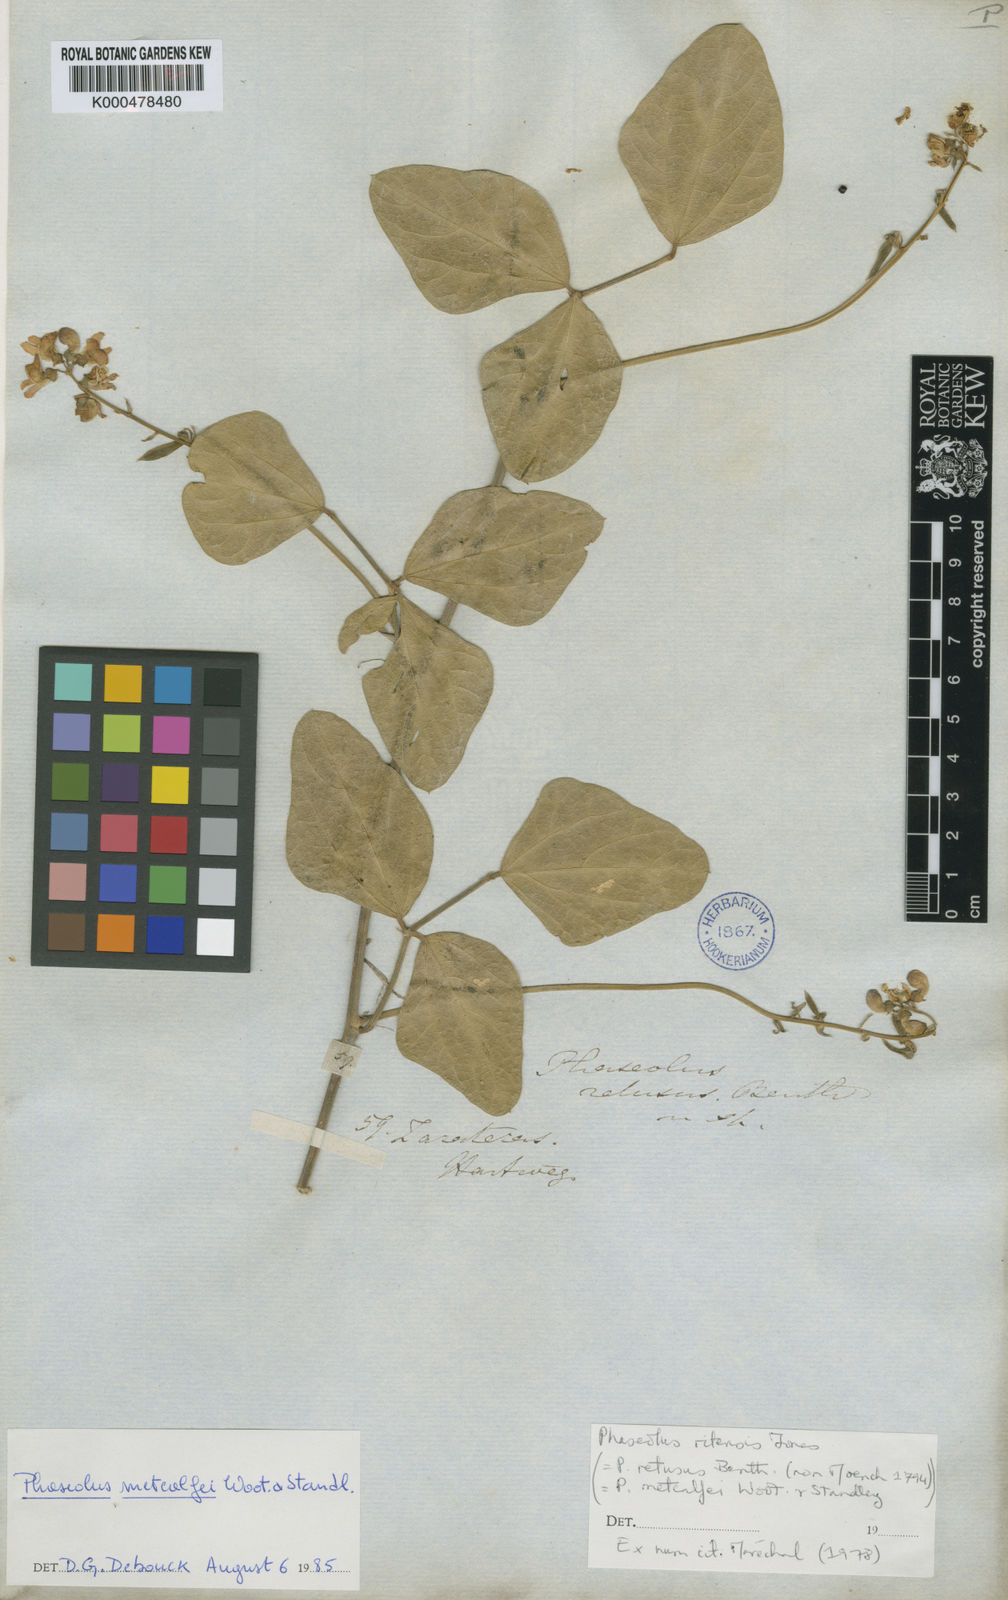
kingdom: Plantae
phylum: Tracheophyta
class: Magnoliopsida
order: Fabales
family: Fabaceae
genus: Phaseolus
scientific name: Phaseolus maculatus
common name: Metcalfe bean
